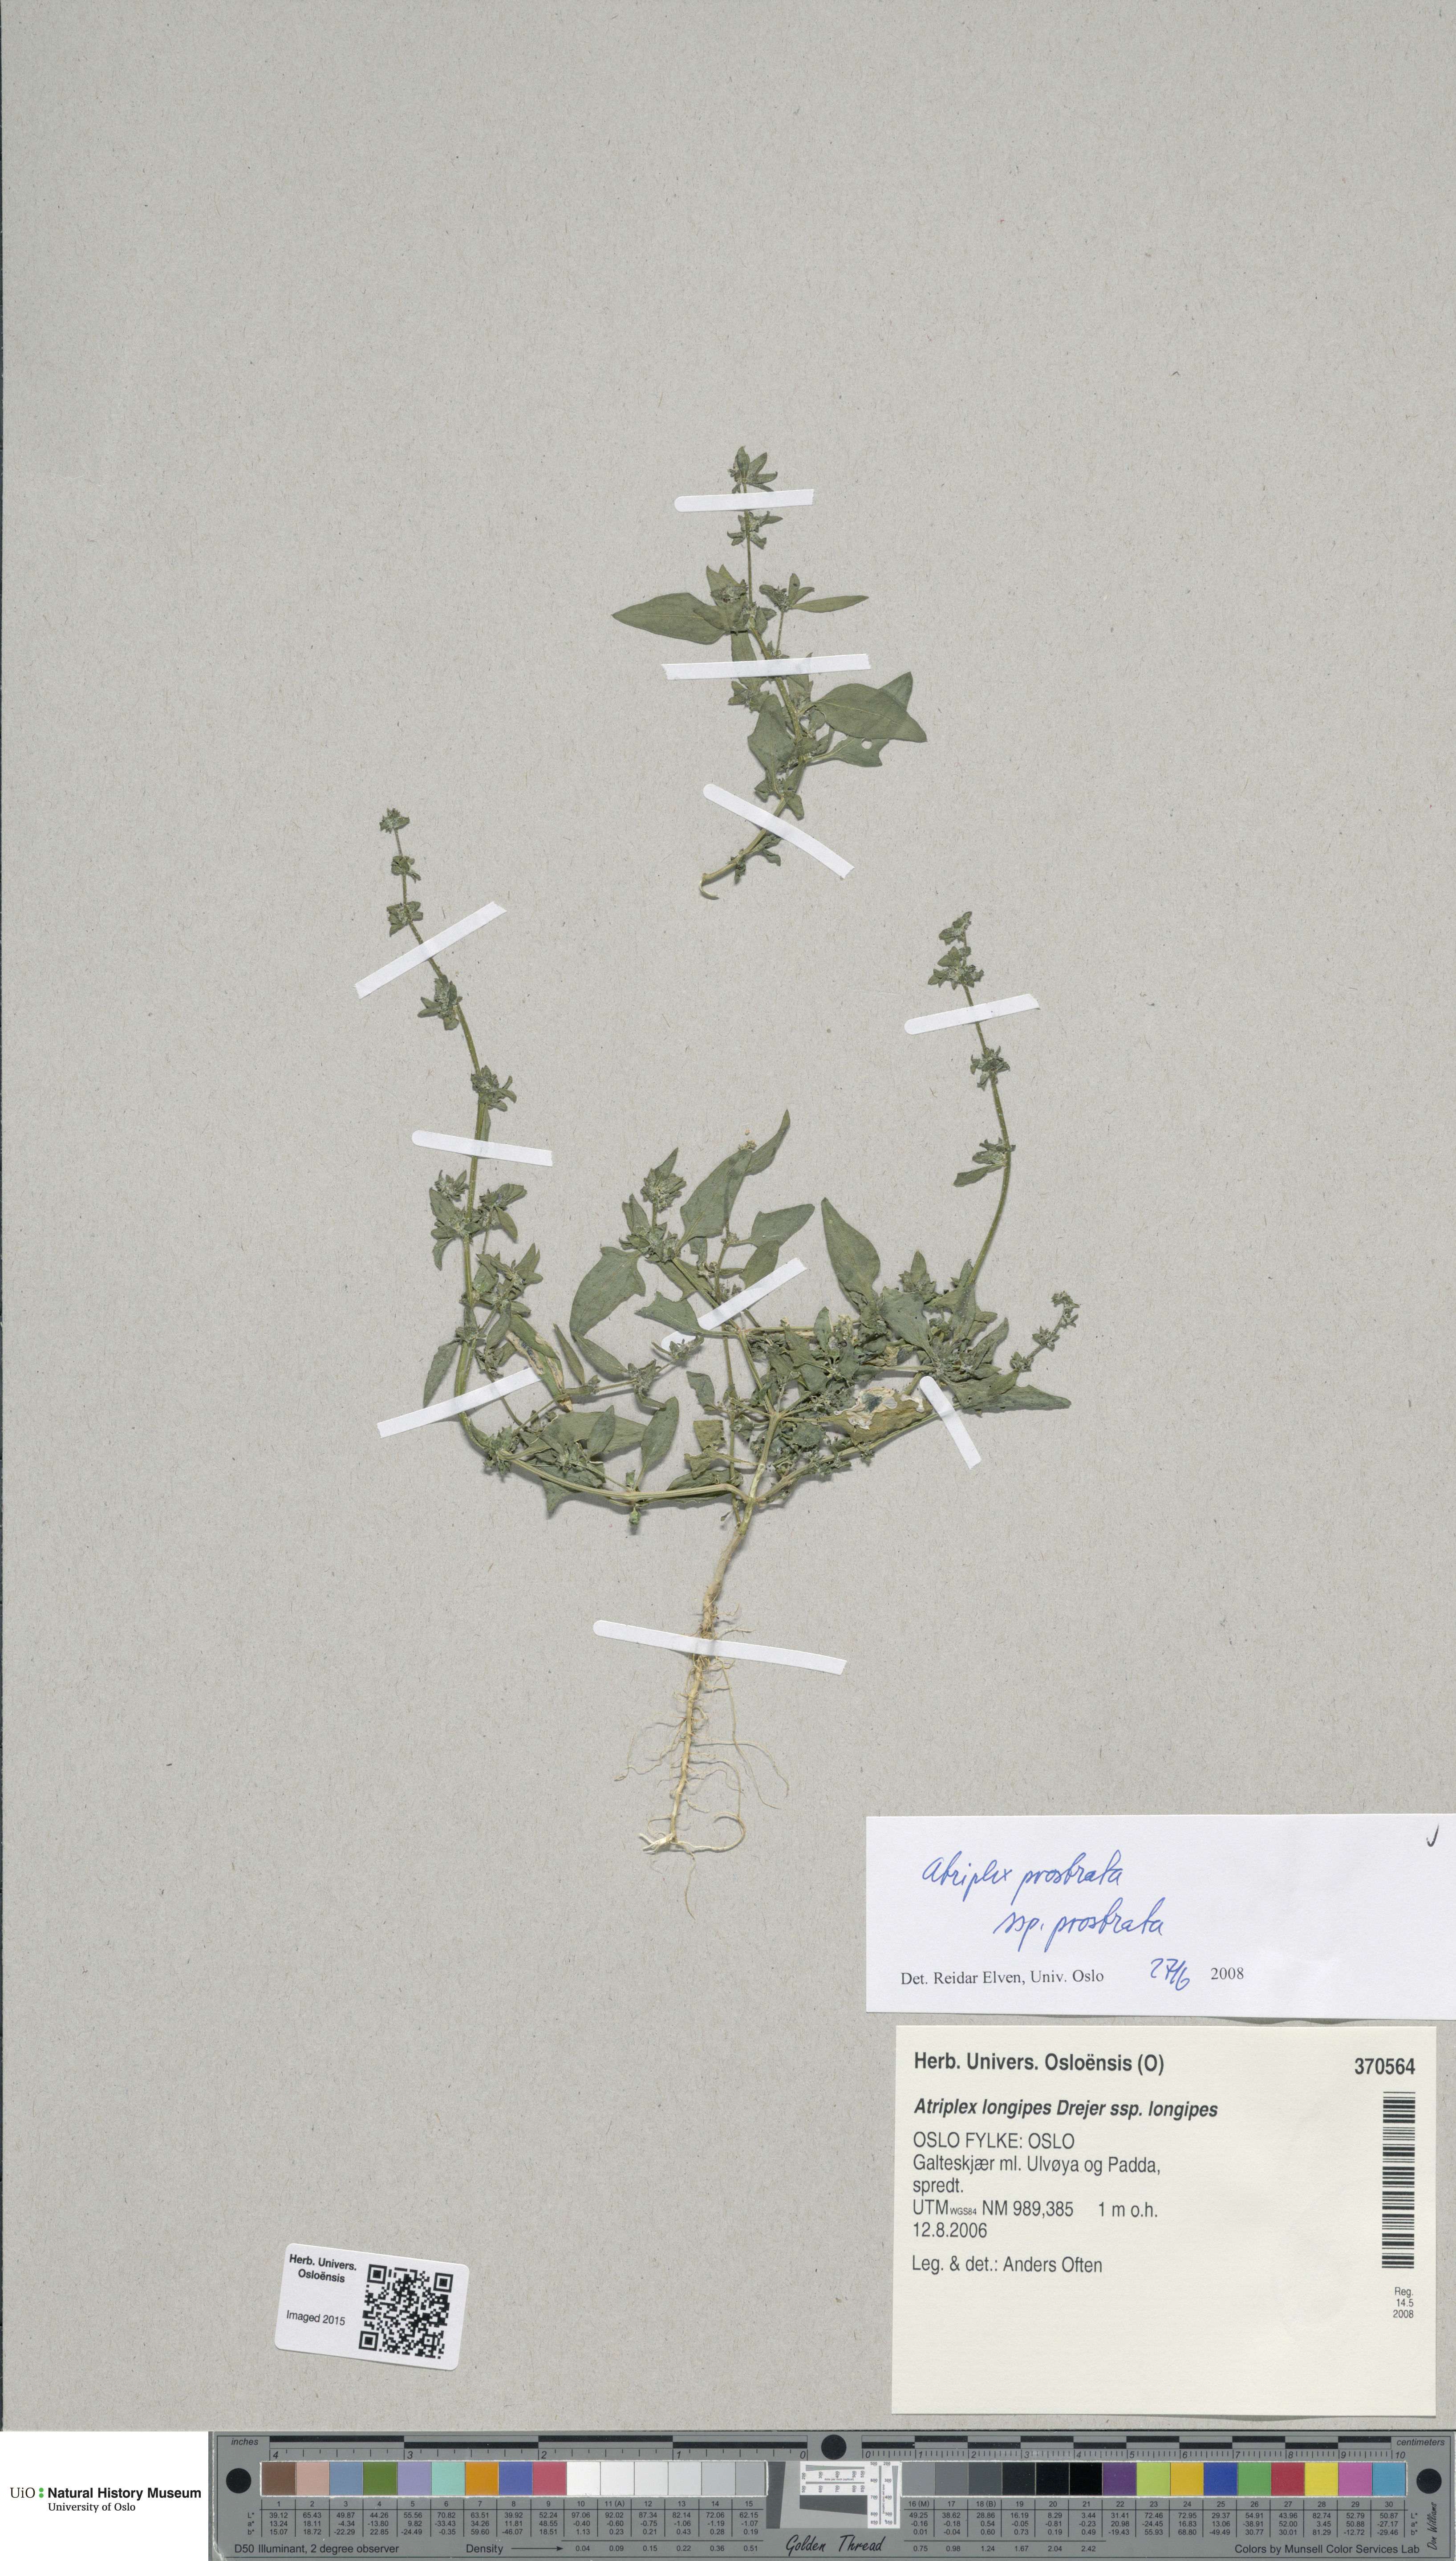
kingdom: Plantae
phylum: Tracheophyta
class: Magnoliopsida
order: Caryophyllales
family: Amaranthaceae
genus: Atriplex
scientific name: Atriplex prostrata
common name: Spear-leaved orache
